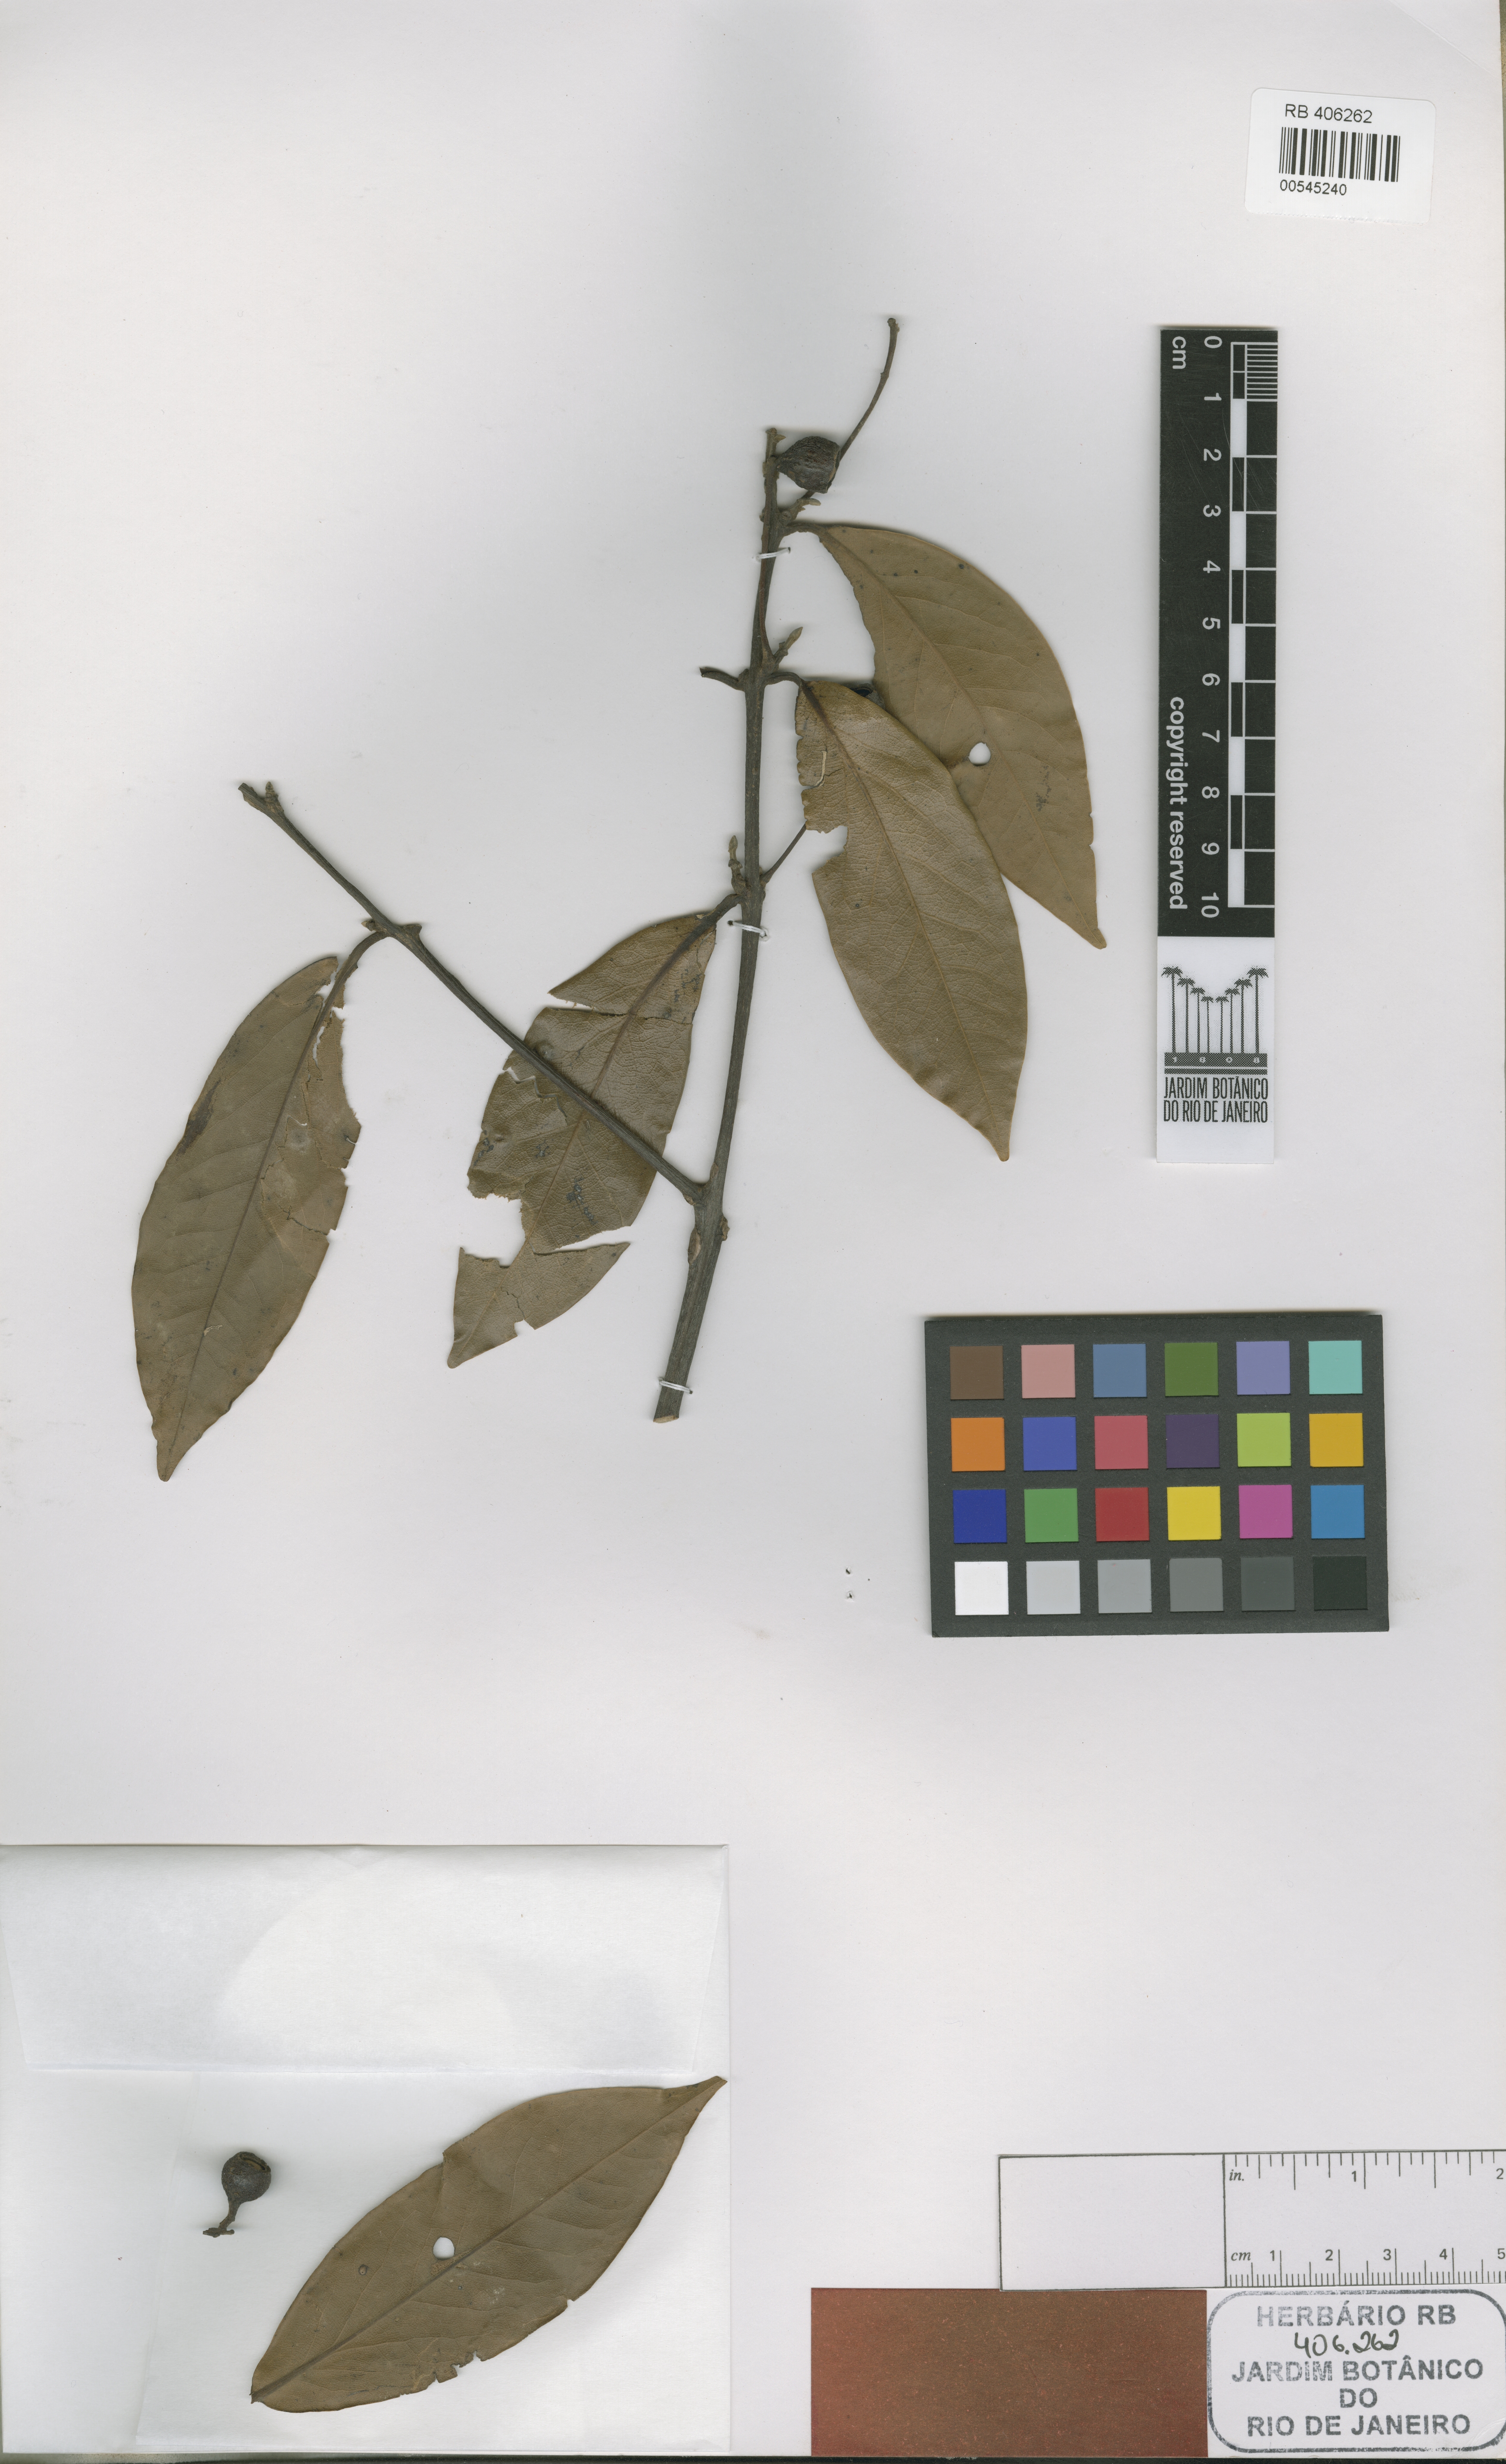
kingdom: Plantae
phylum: Tracheophyta
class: Magnoliopsida
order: Laurales
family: Lauraceae
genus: Ocotea
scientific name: Ocotea oppositifolia
